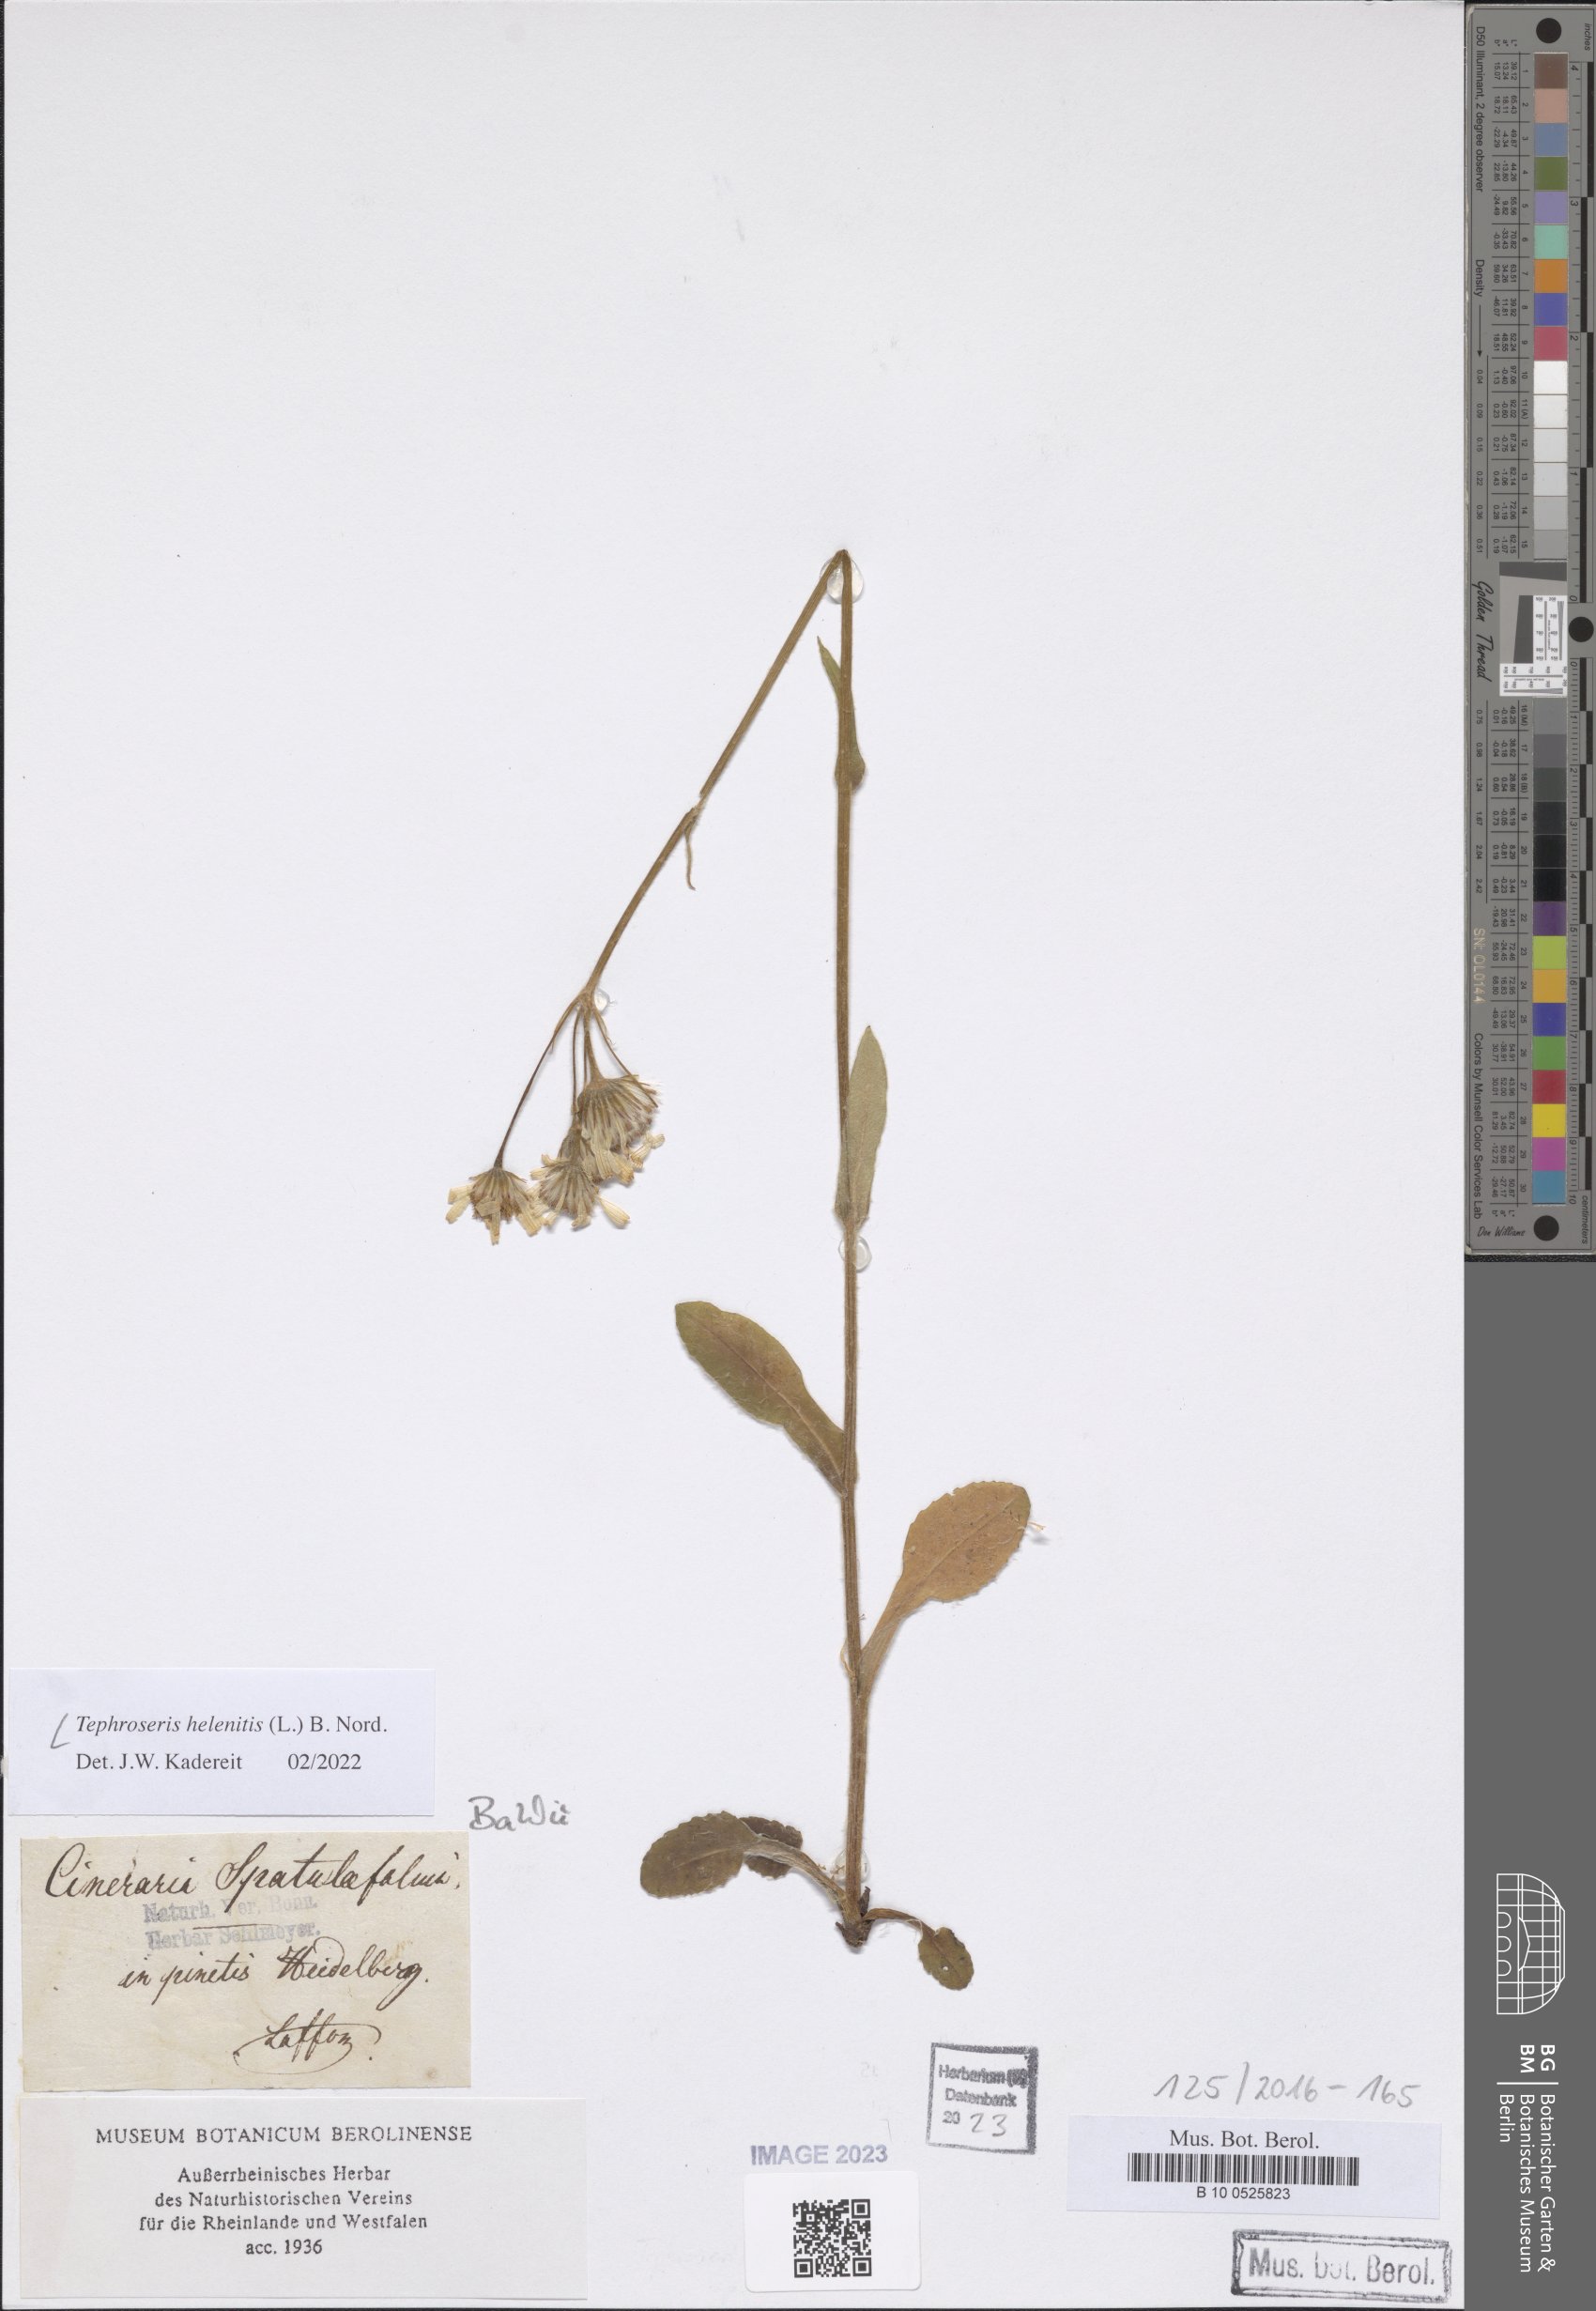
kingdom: Plantae
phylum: Tracheophyta
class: Magnoliopsida
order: Asterales
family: Asteraceae
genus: Tephroseris
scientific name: Tephroseris helenitis
